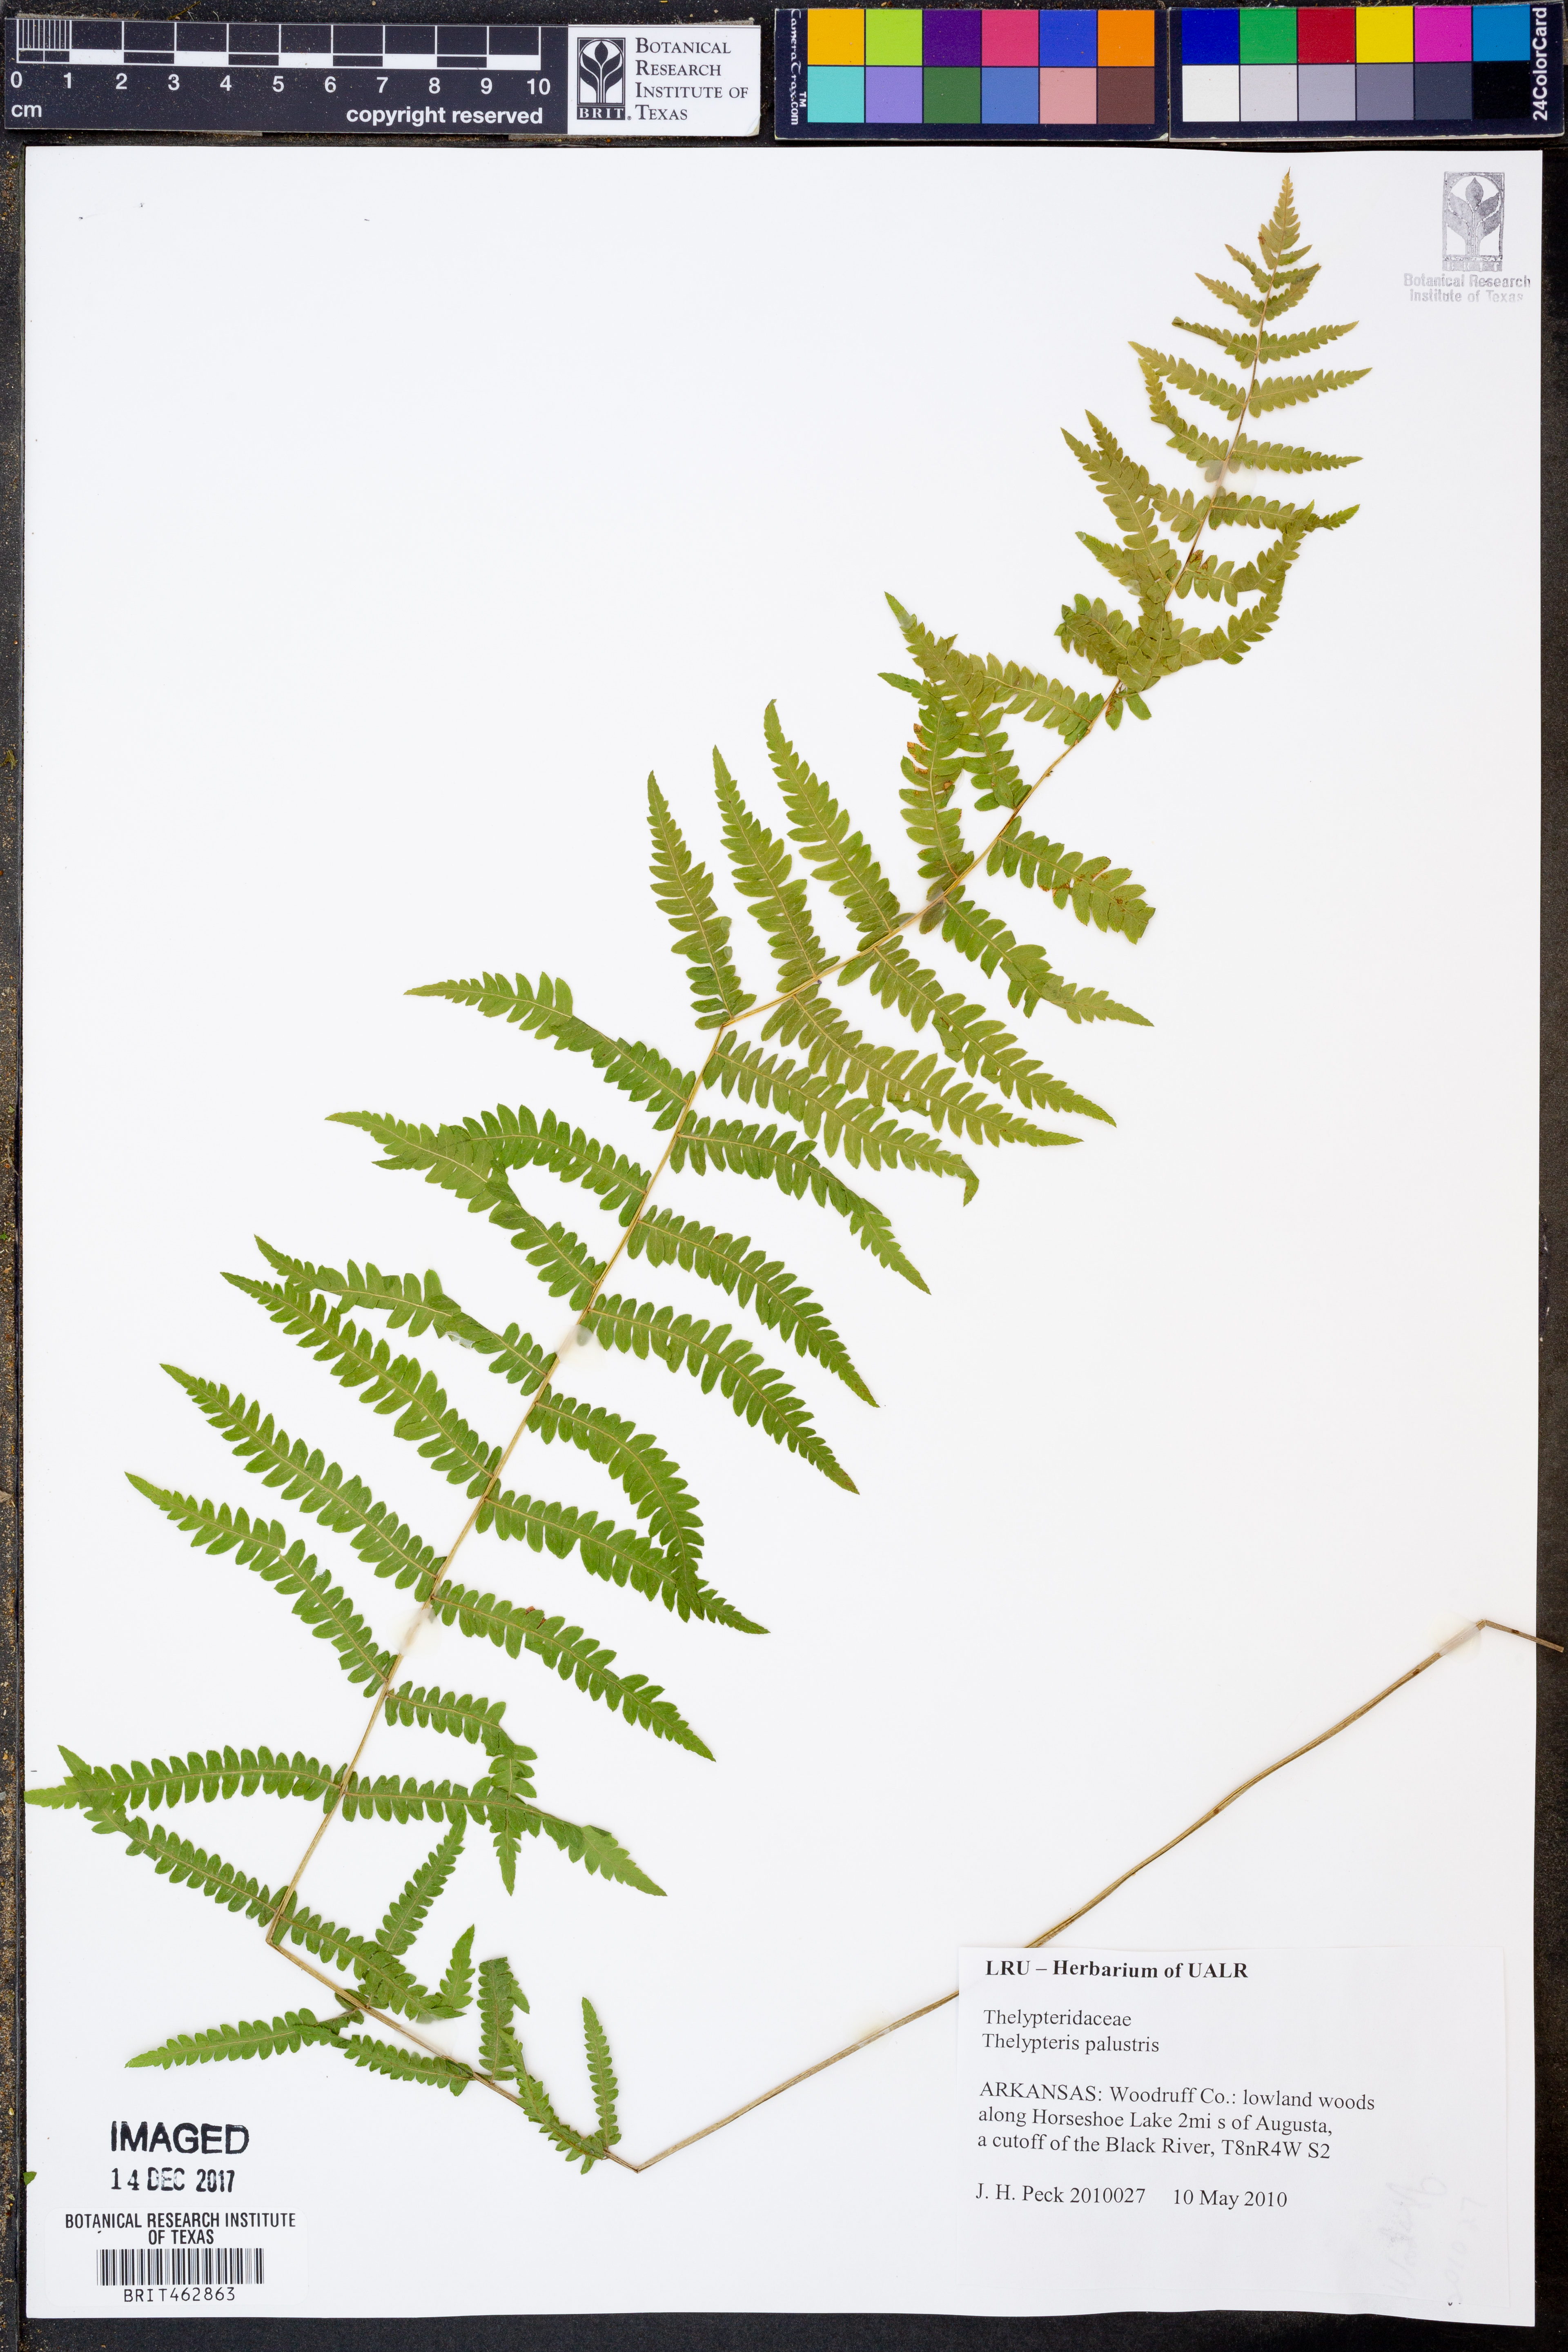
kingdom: Plantae
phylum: Tracheophyta
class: Polypodiopsida
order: Polypodiales
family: Thelypteridaceae
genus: Thelypteris
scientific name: Thelypteris palustris
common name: Marsh fern
